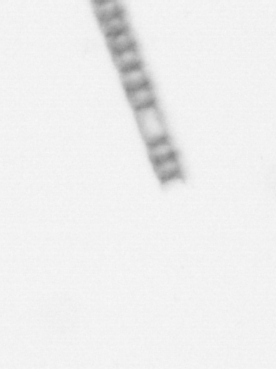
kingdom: Chromista
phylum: Ochrophyta
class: Bacillariophyceae
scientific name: Bacillariophyceae
